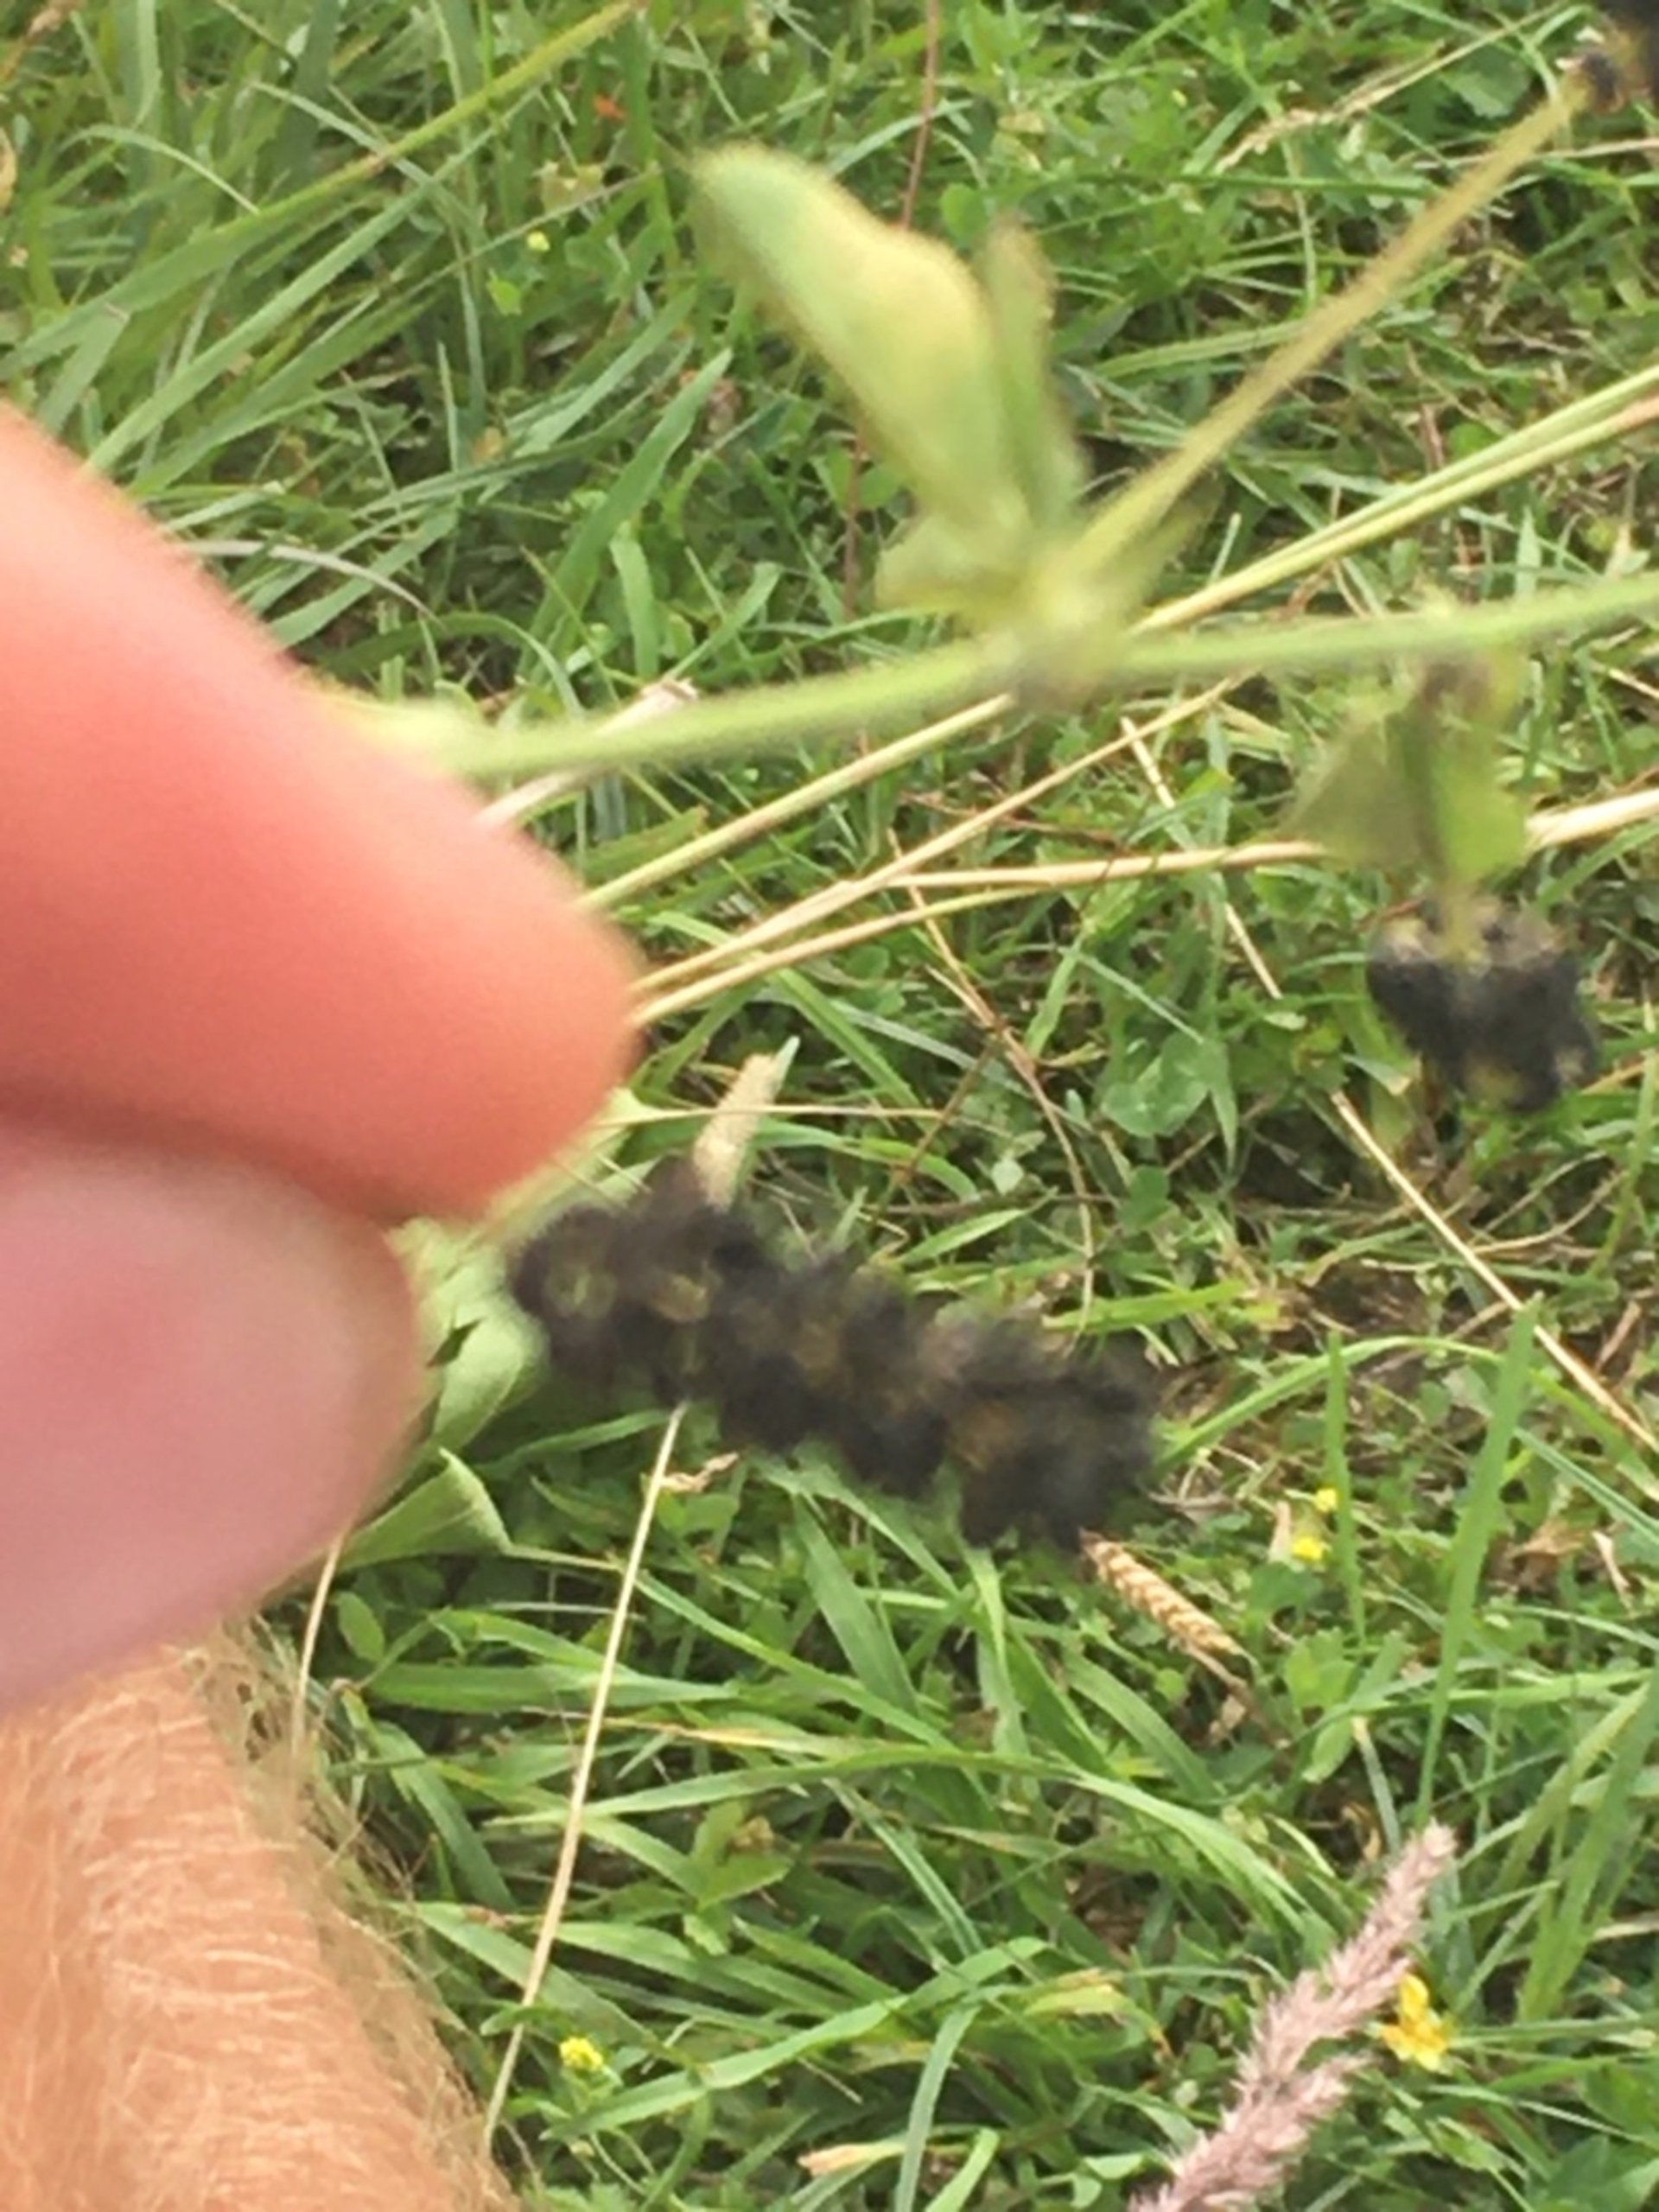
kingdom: Plantae
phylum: Tracheophyta
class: Magnoliopsida
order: Fabales
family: Fabaceae
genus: Medicago
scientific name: Medicago lupulina
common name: Humle-sneglebælg
